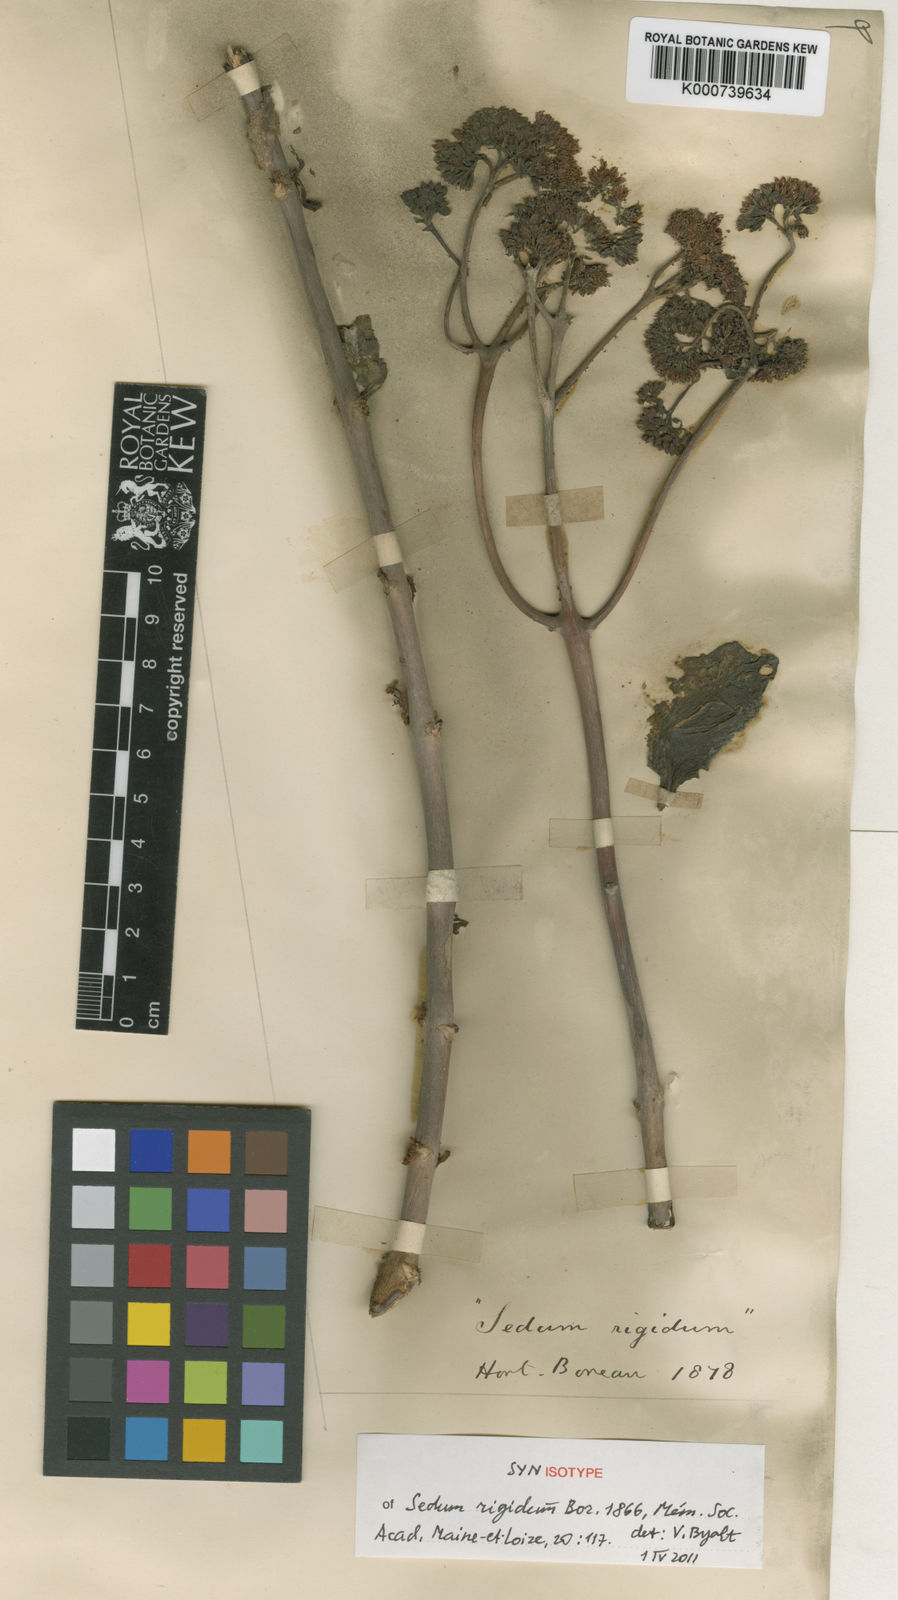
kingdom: Plantae
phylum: Tracheophyta
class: Magnoliopsida
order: Saxifragales
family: Crassulaceae
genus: Sedum
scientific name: Sedum rigidum
